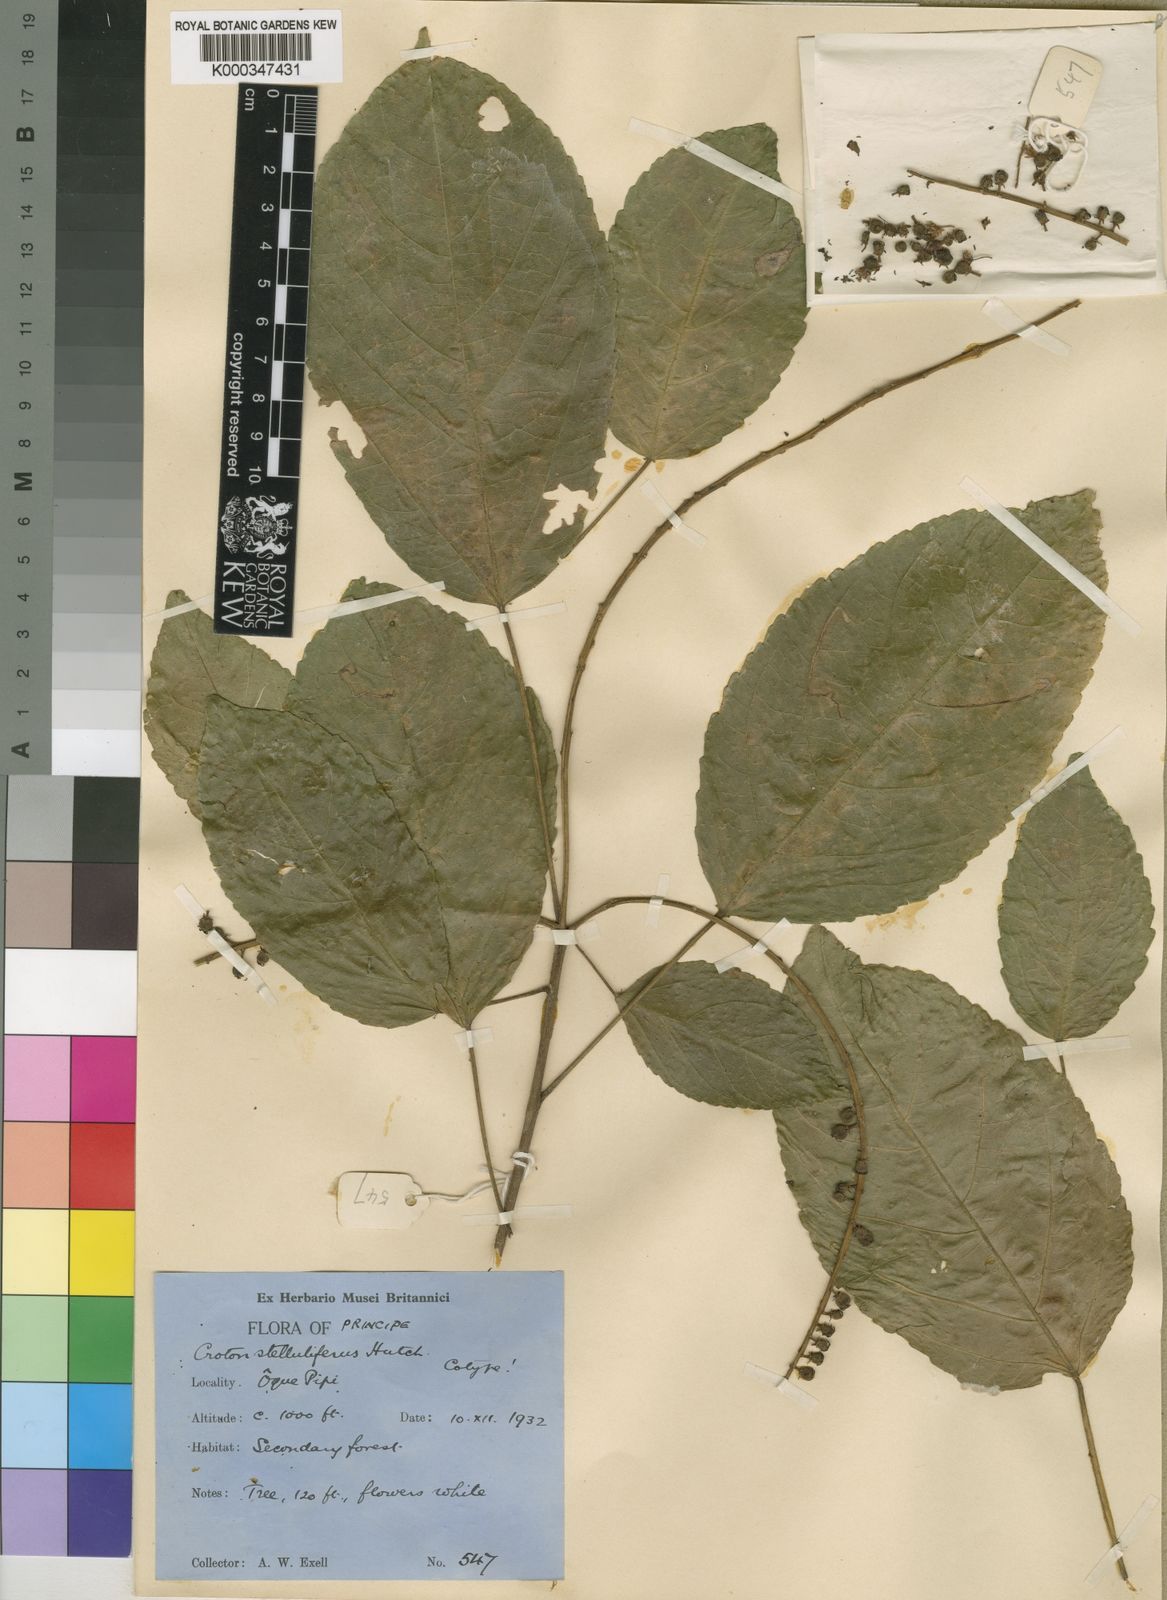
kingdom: Plantae
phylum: Tracheophyta
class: Magnoliopsida
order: Malpighiales
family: Euphorbiaceae
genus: Croton
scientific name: Croton
